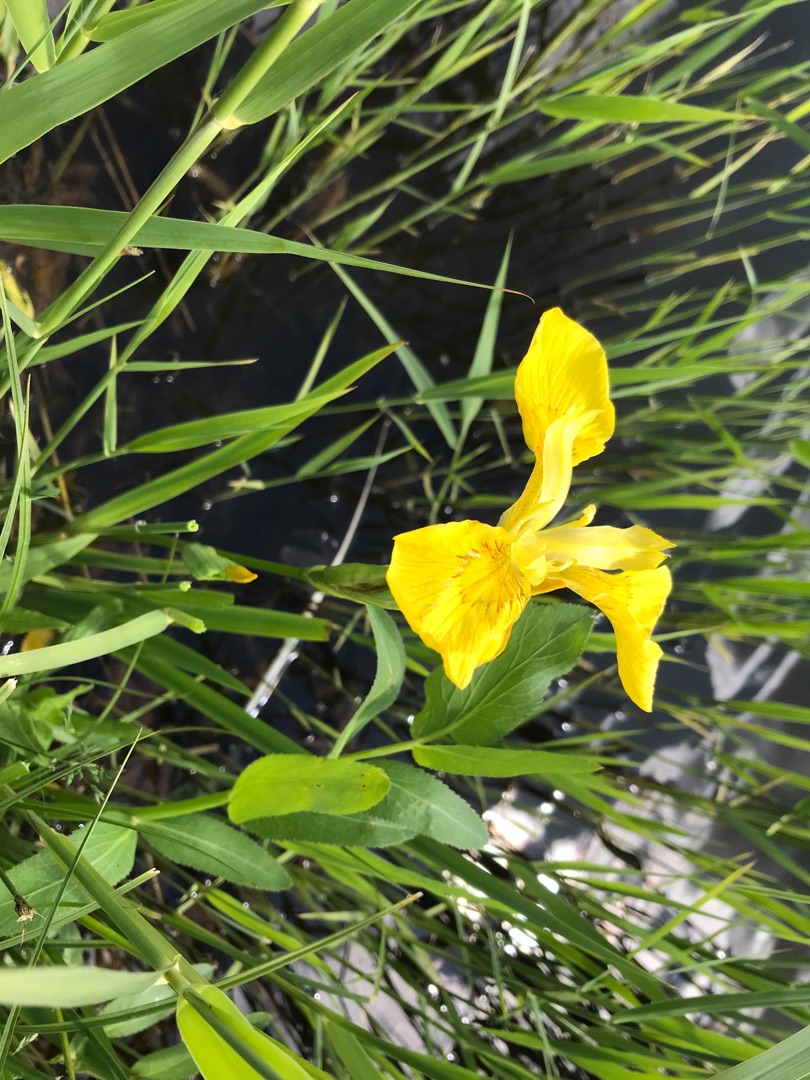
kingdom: Plantae
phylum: Tracheophyta
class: Liliopsida
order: Asparagales
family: Iridaceae
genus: Iris
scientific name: Iris pseudacorus
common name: Gul iris
